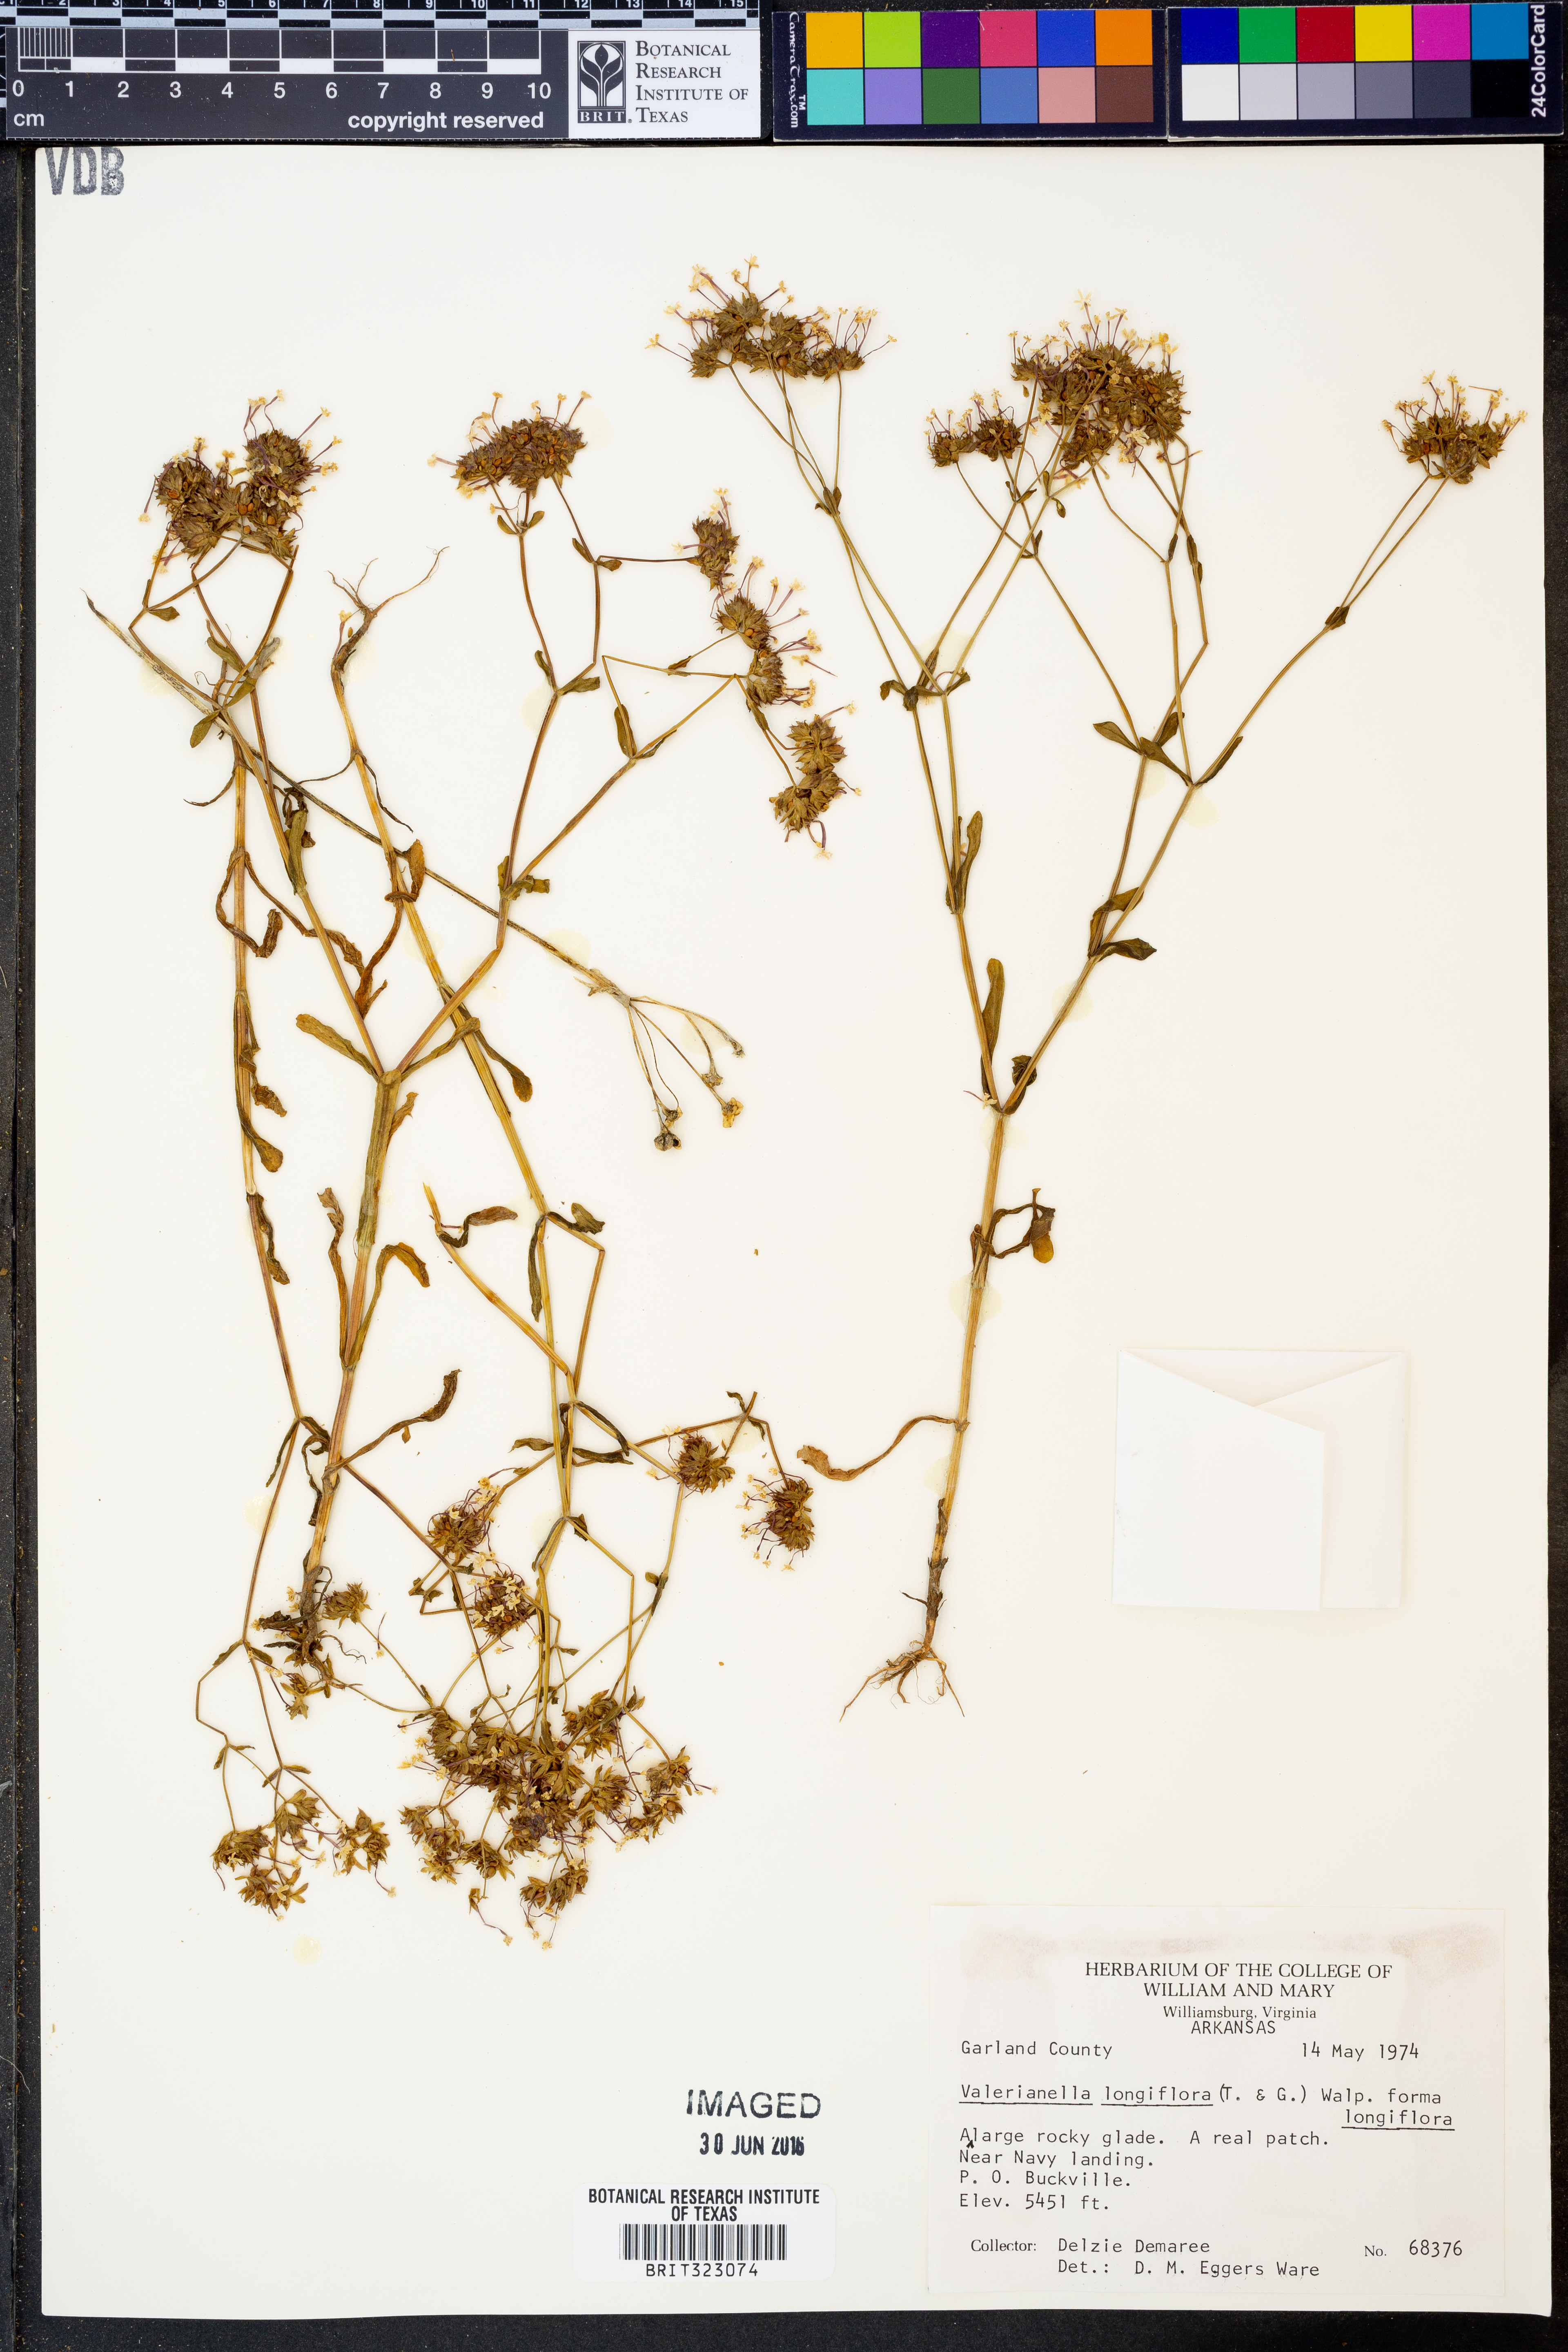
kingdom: Plantae
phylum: Tracheophyta
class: Magnoliopsida
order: Dipsacales
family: Caprifoliaceae
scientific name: Caprifoliaceae
